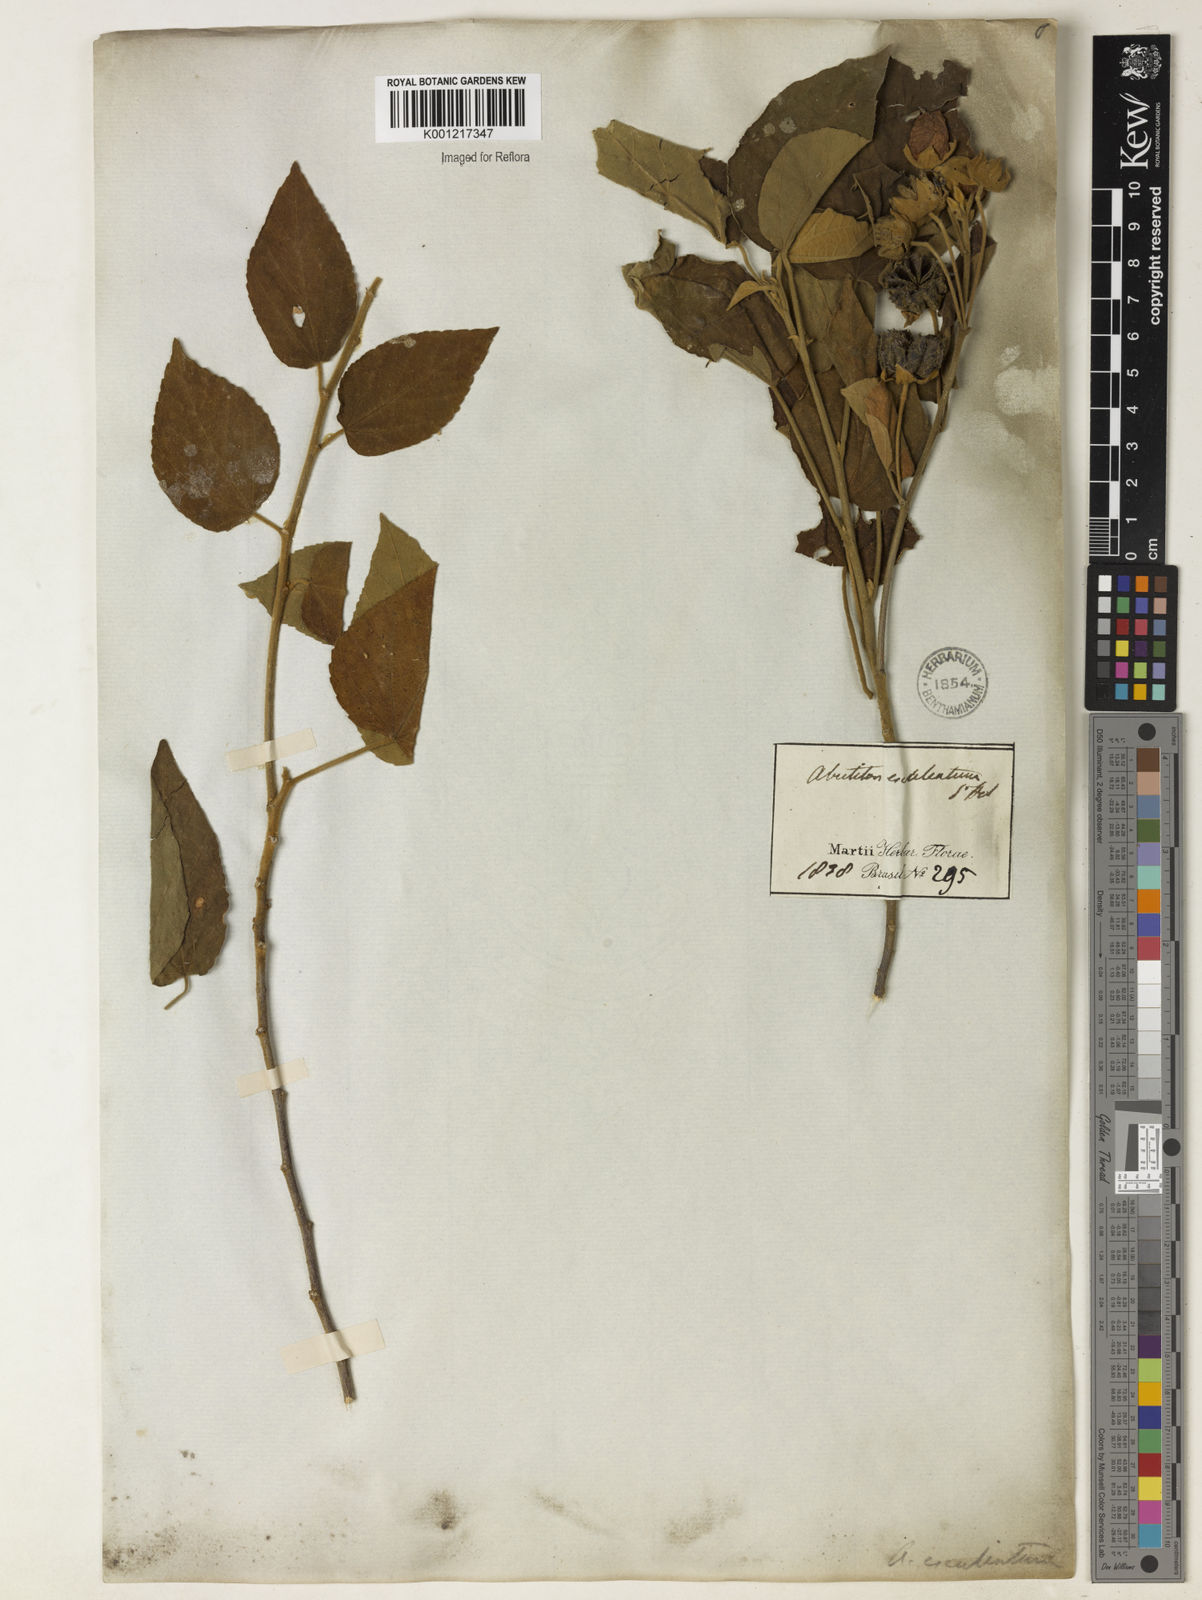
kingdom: Plantae
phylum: Tracheophyta
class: Magnoliopsida
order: Malvales
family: Malvaceae
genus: Bakeridesia
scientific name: Bakeridesia esculenta
